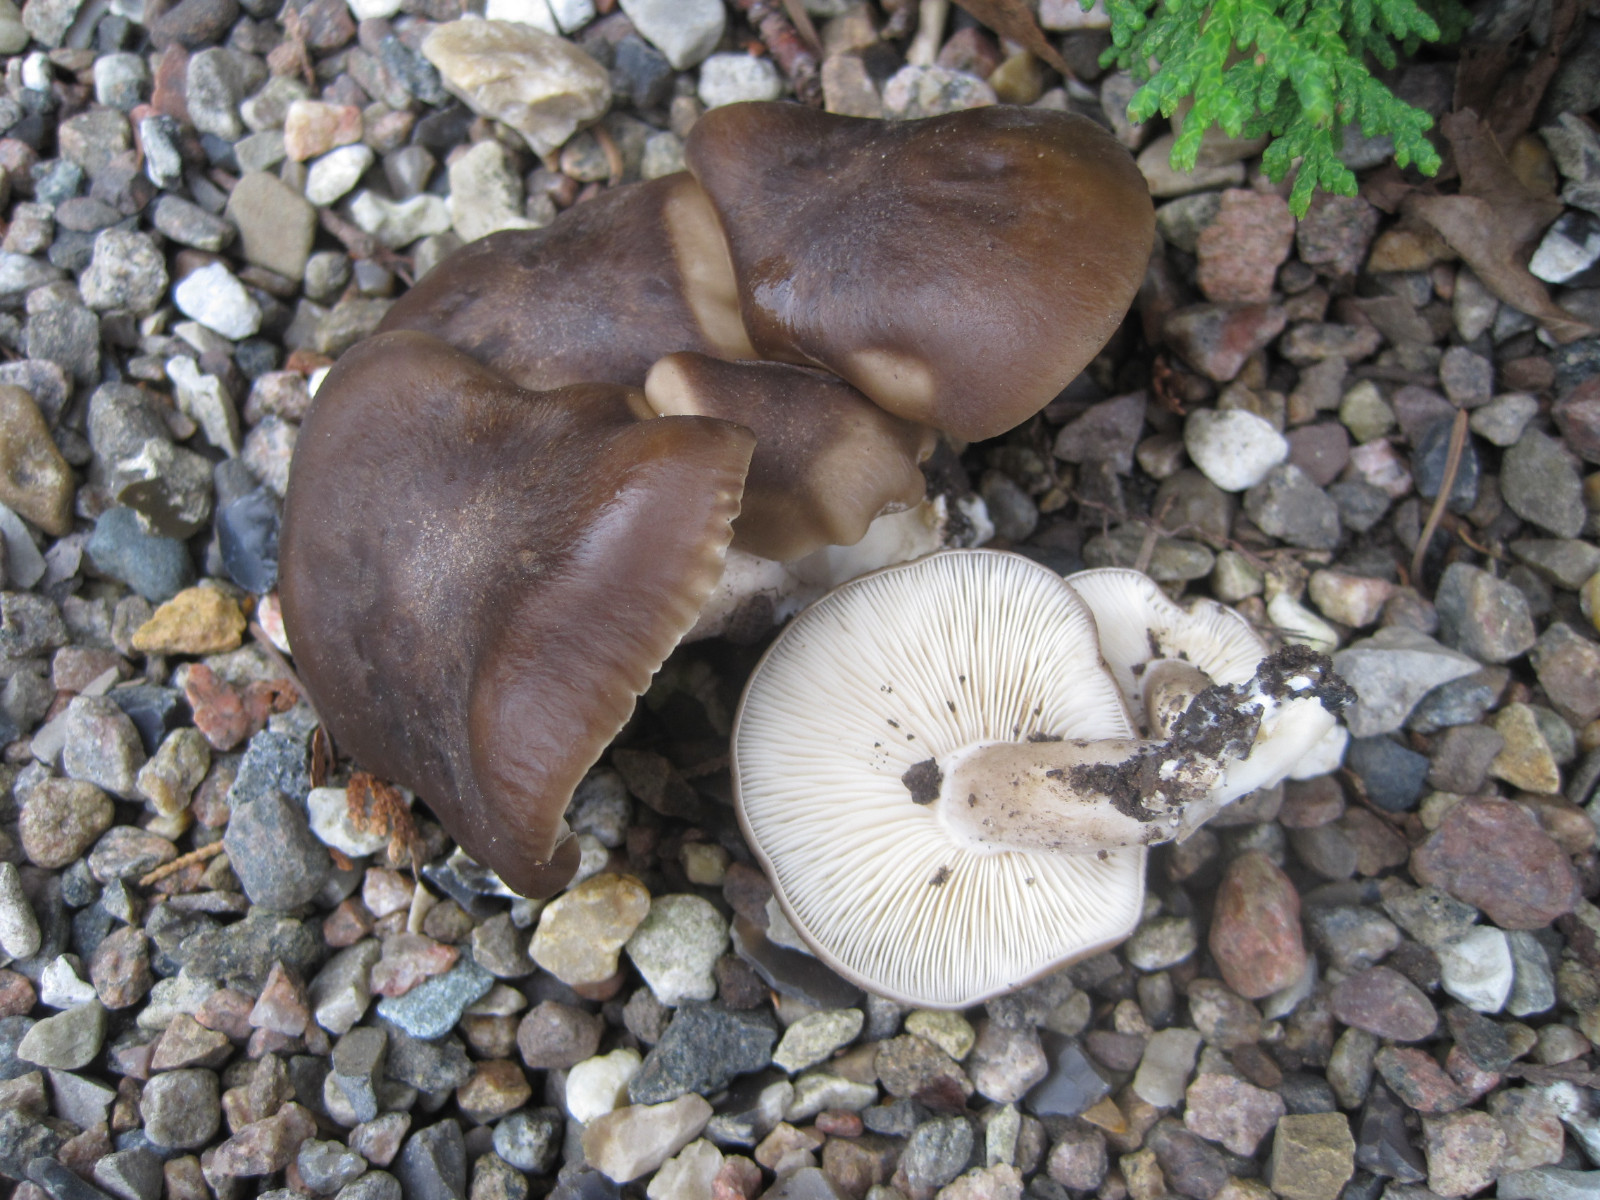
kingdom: Fungi
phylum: Basidiomycota
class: Agaricomycetes
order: Agaricales
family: Lyophyllaceae
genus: Lyophyllum
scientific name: Lyophyllum decastes
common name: røggrå gråblad
